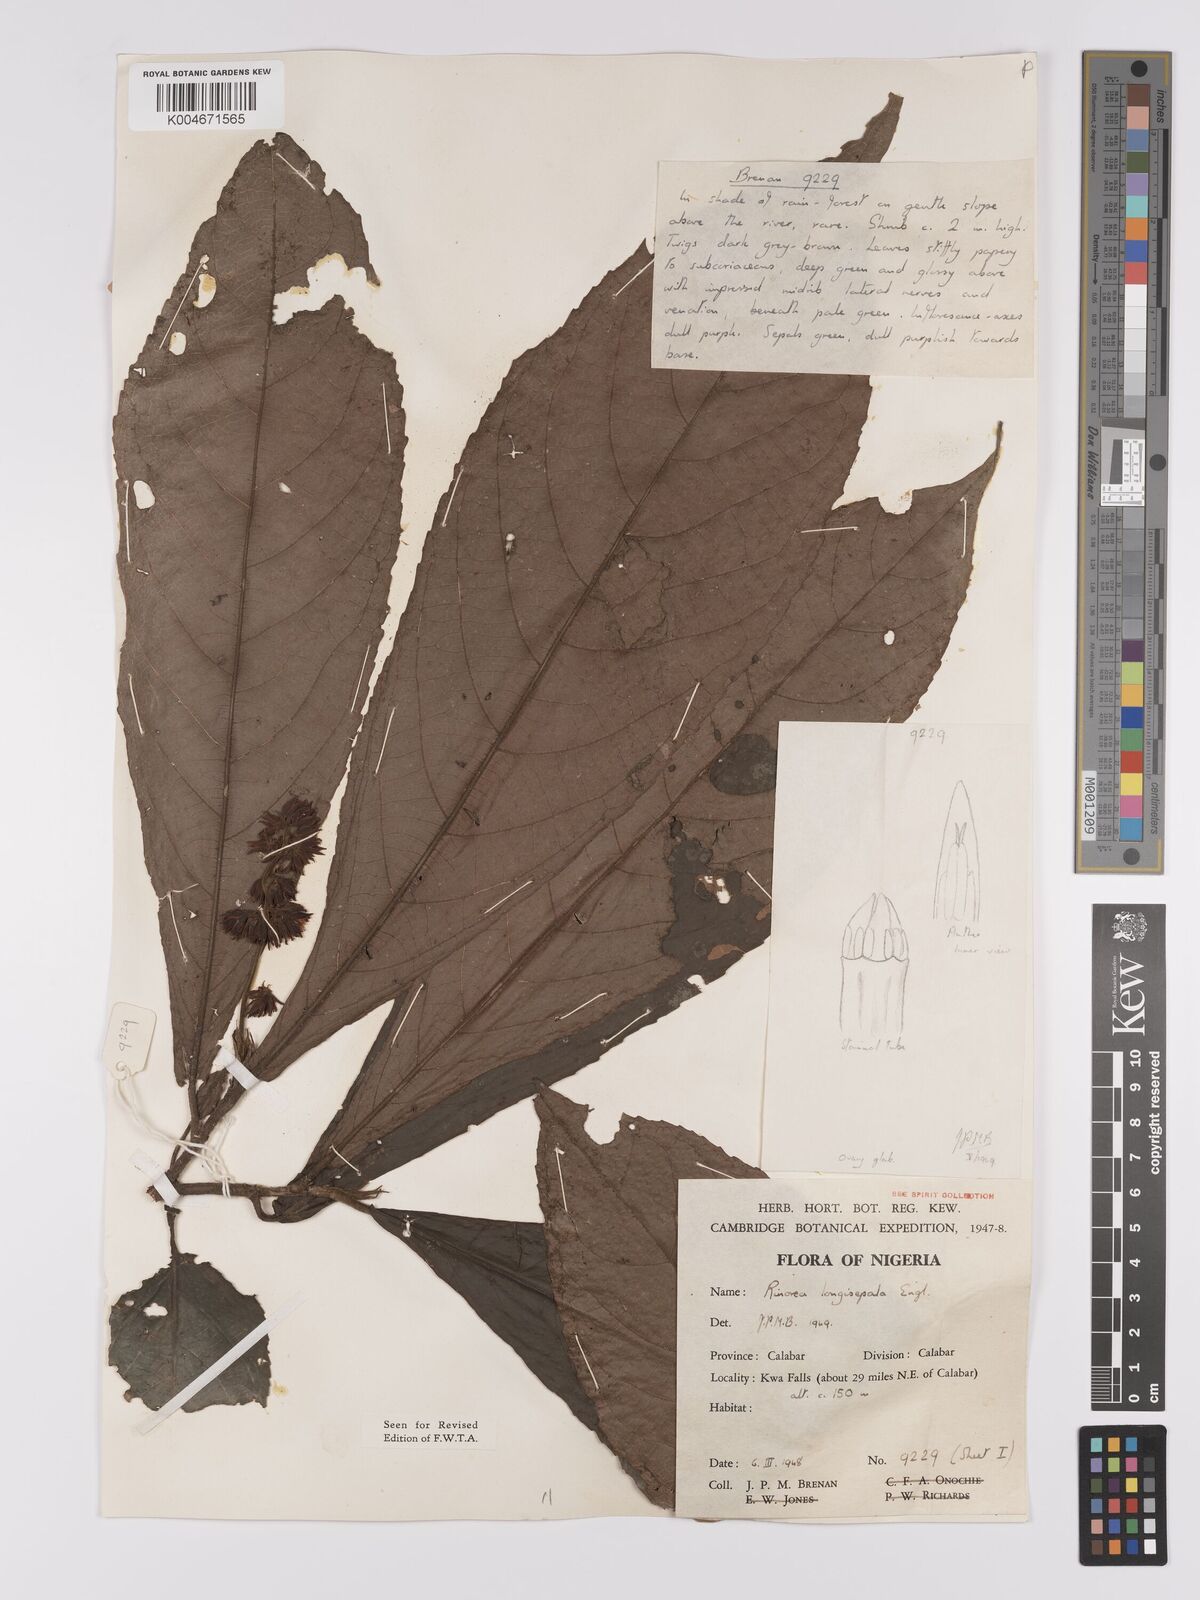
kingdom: Plantae
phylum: Tracheophyta
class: Magnoliopsida
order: Malpighiales
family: Violaceae
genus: Rinorea
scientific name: Rinorea longisepala
